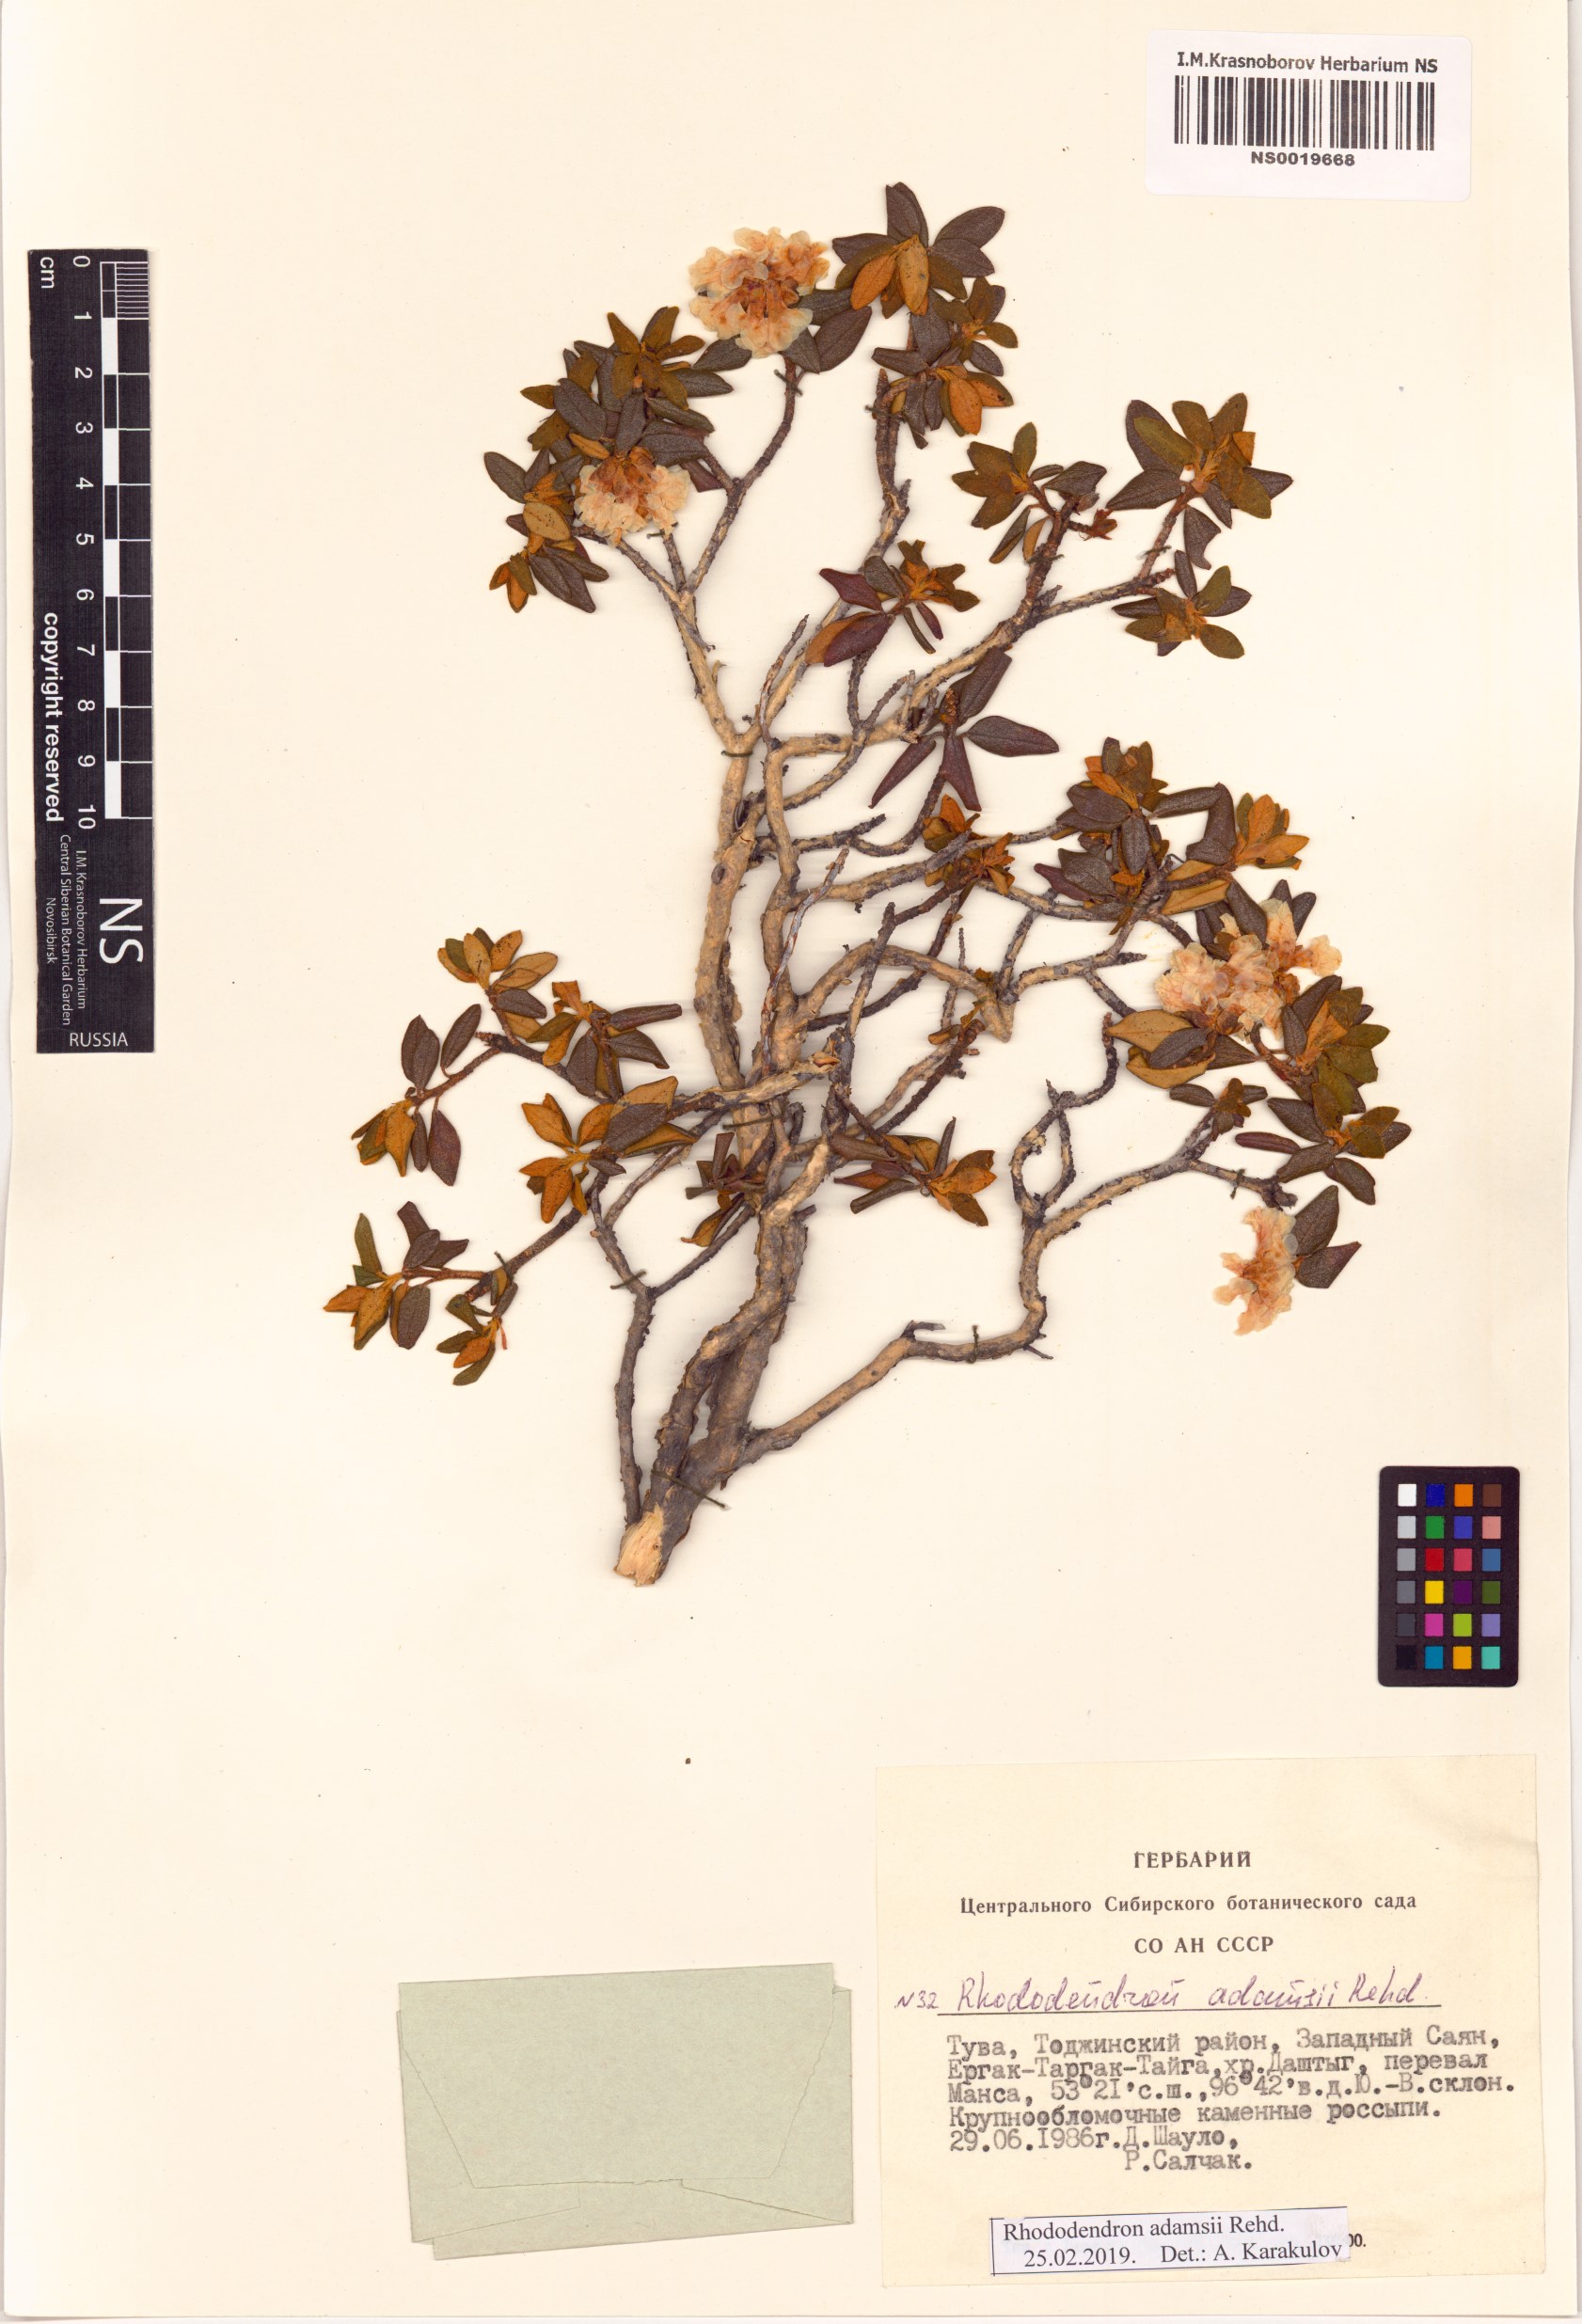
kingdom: Plantae
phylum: Tracheophyta
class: Magnoliopsida
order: Ericales
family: Ericaceae
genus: Rhododendron
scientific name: Rhododendron adamsii
